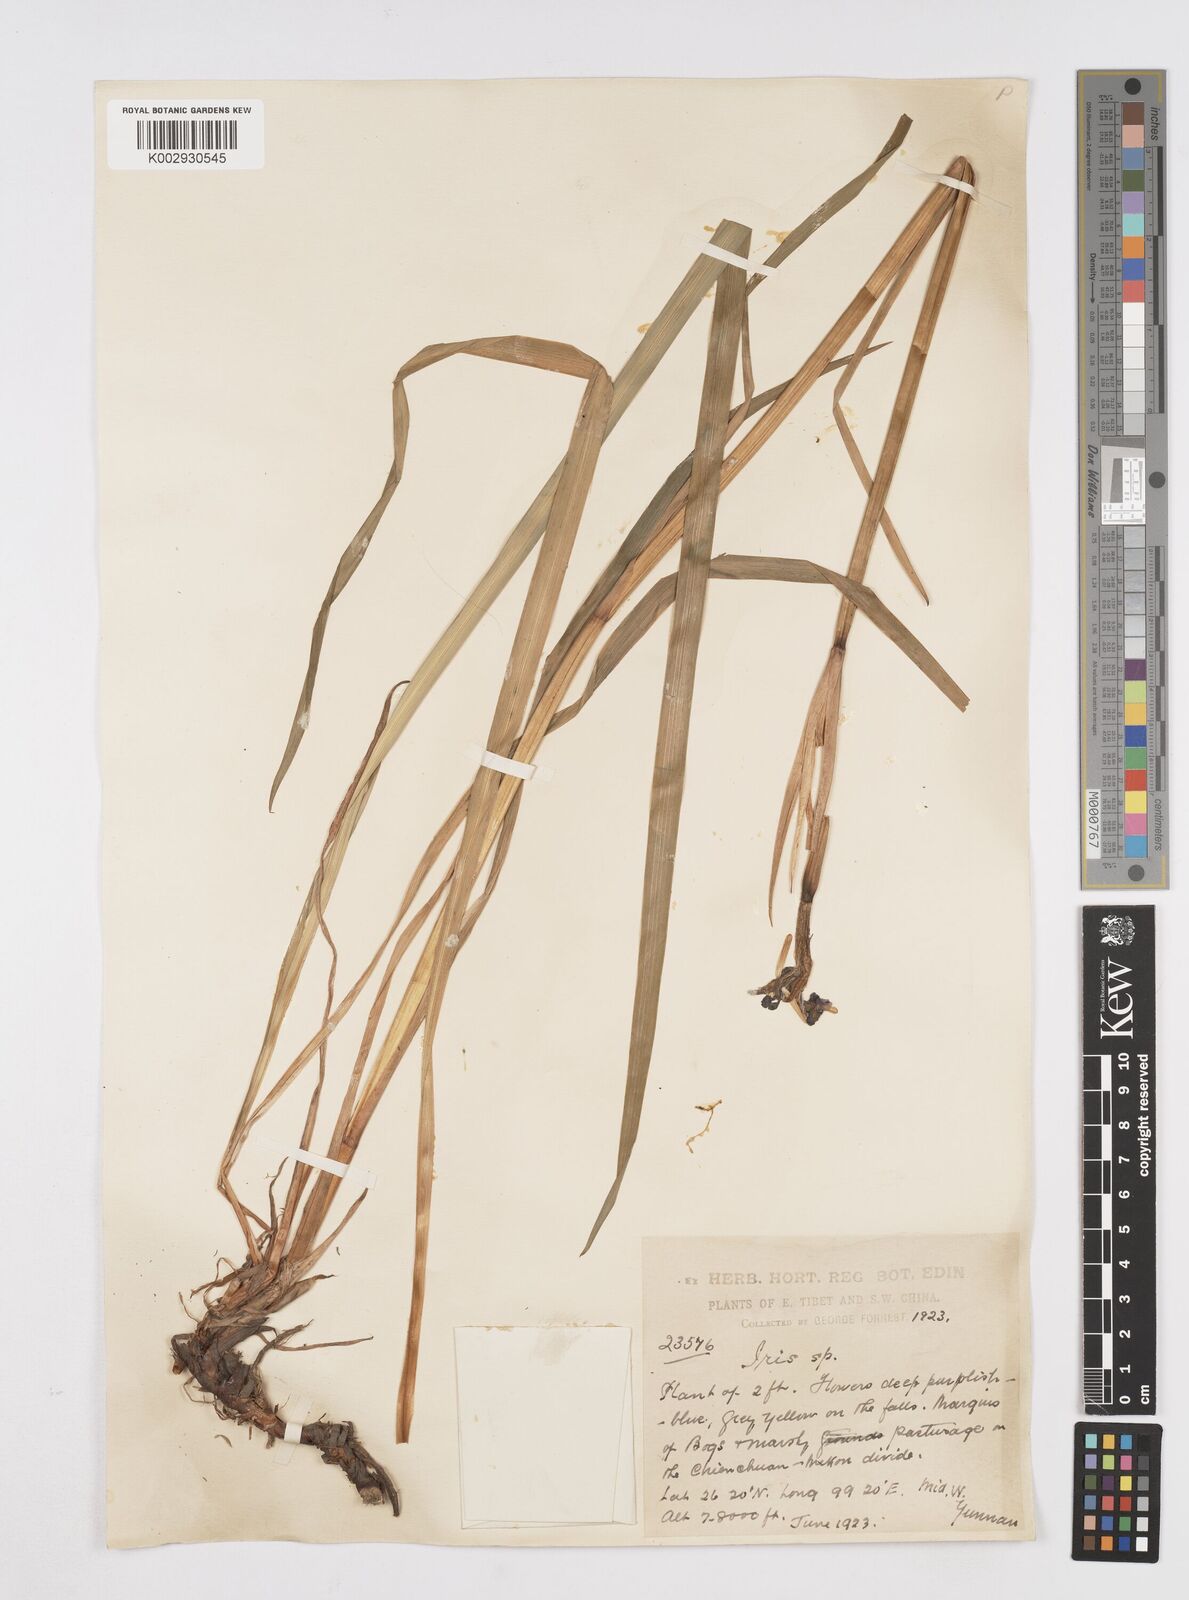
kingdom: Plantae
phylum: Tracheophyta
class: Liliopsida
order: Asparagales
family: Iridaceae
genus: Iris
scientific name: Iris bulleyana
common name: Southwest iris
